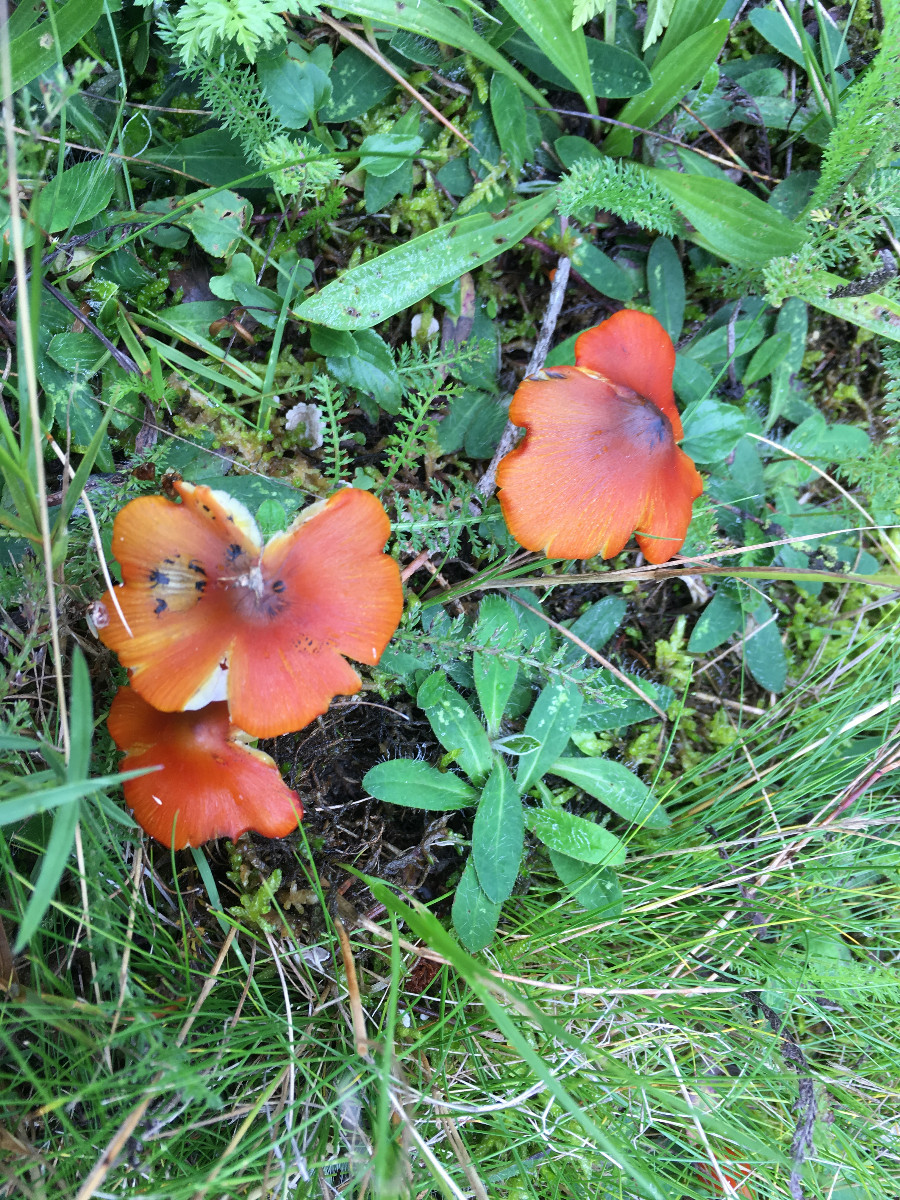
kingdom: Fungi
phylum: Basidiomycota
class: Agaricomycetes
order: Agaricales
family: Hygrophoraceae
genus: Hygrocybe
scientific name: Hygrocybe conica
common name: kegle-vokshat
